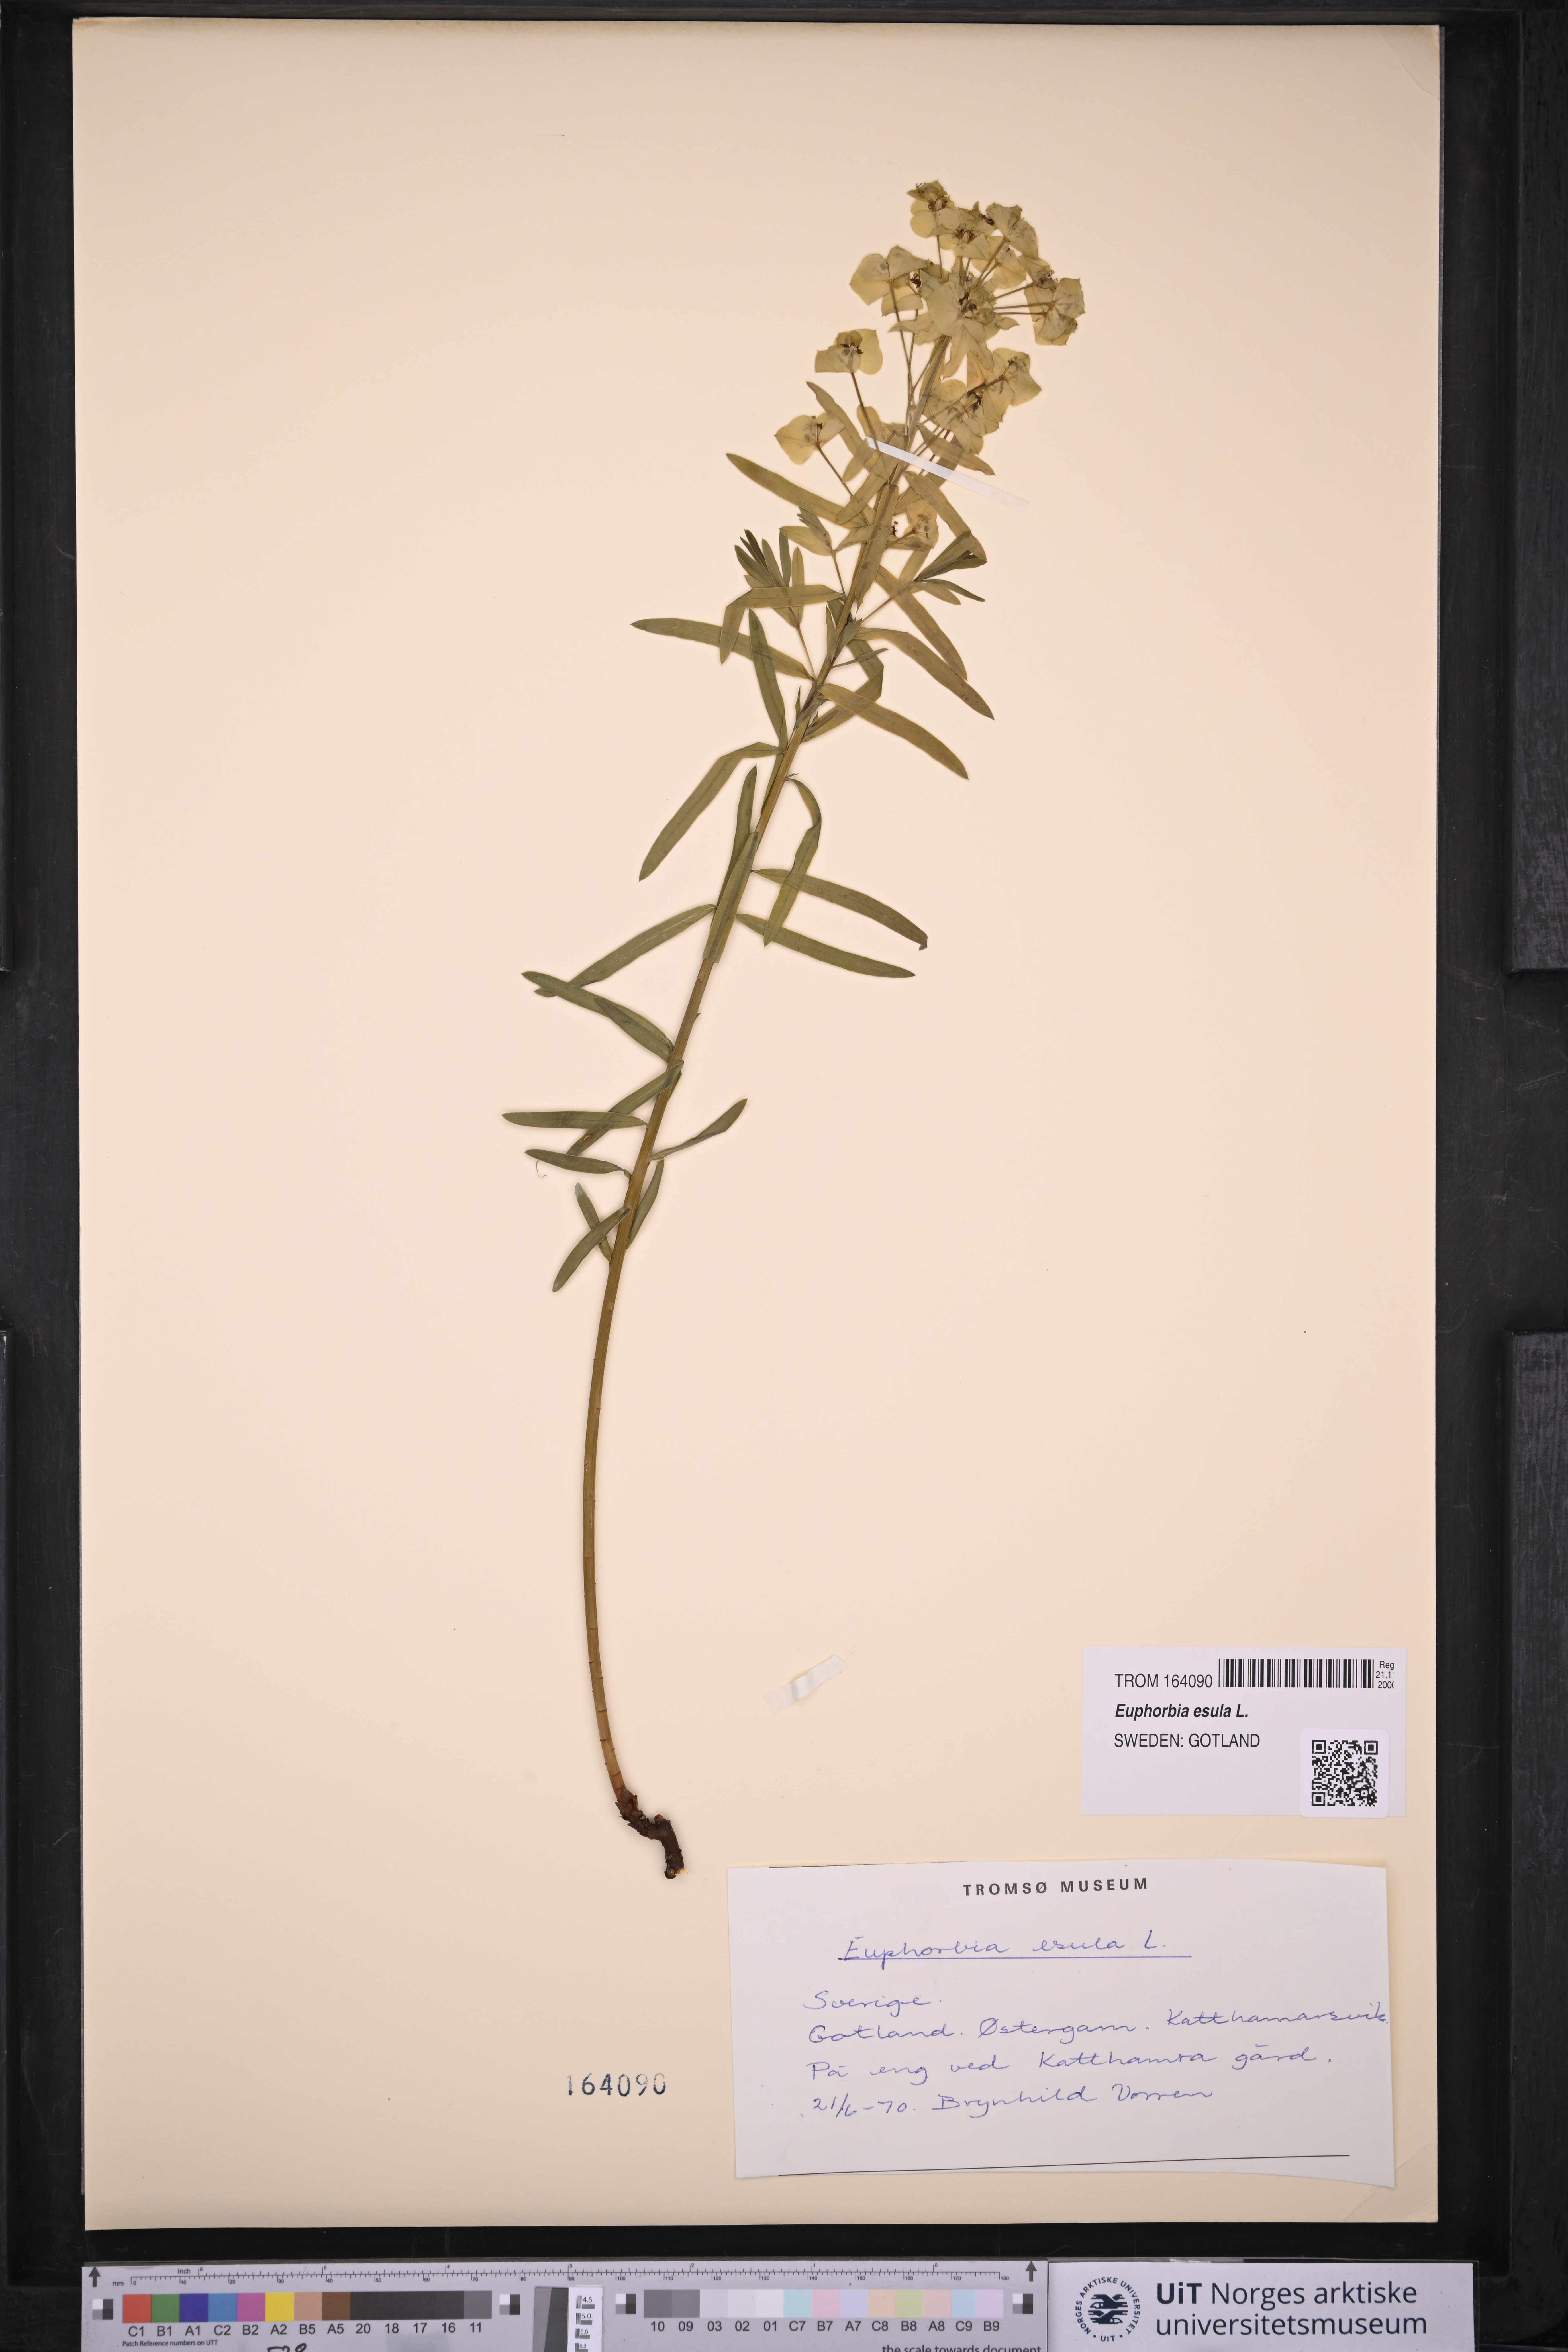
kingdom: Plantae
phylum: Tracheophyta
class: Magnoliopsida
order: Malpighiales
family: Euphorbiaceae
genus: Euphorbia
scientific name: Euphorbia esula
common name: Leafy spurge
